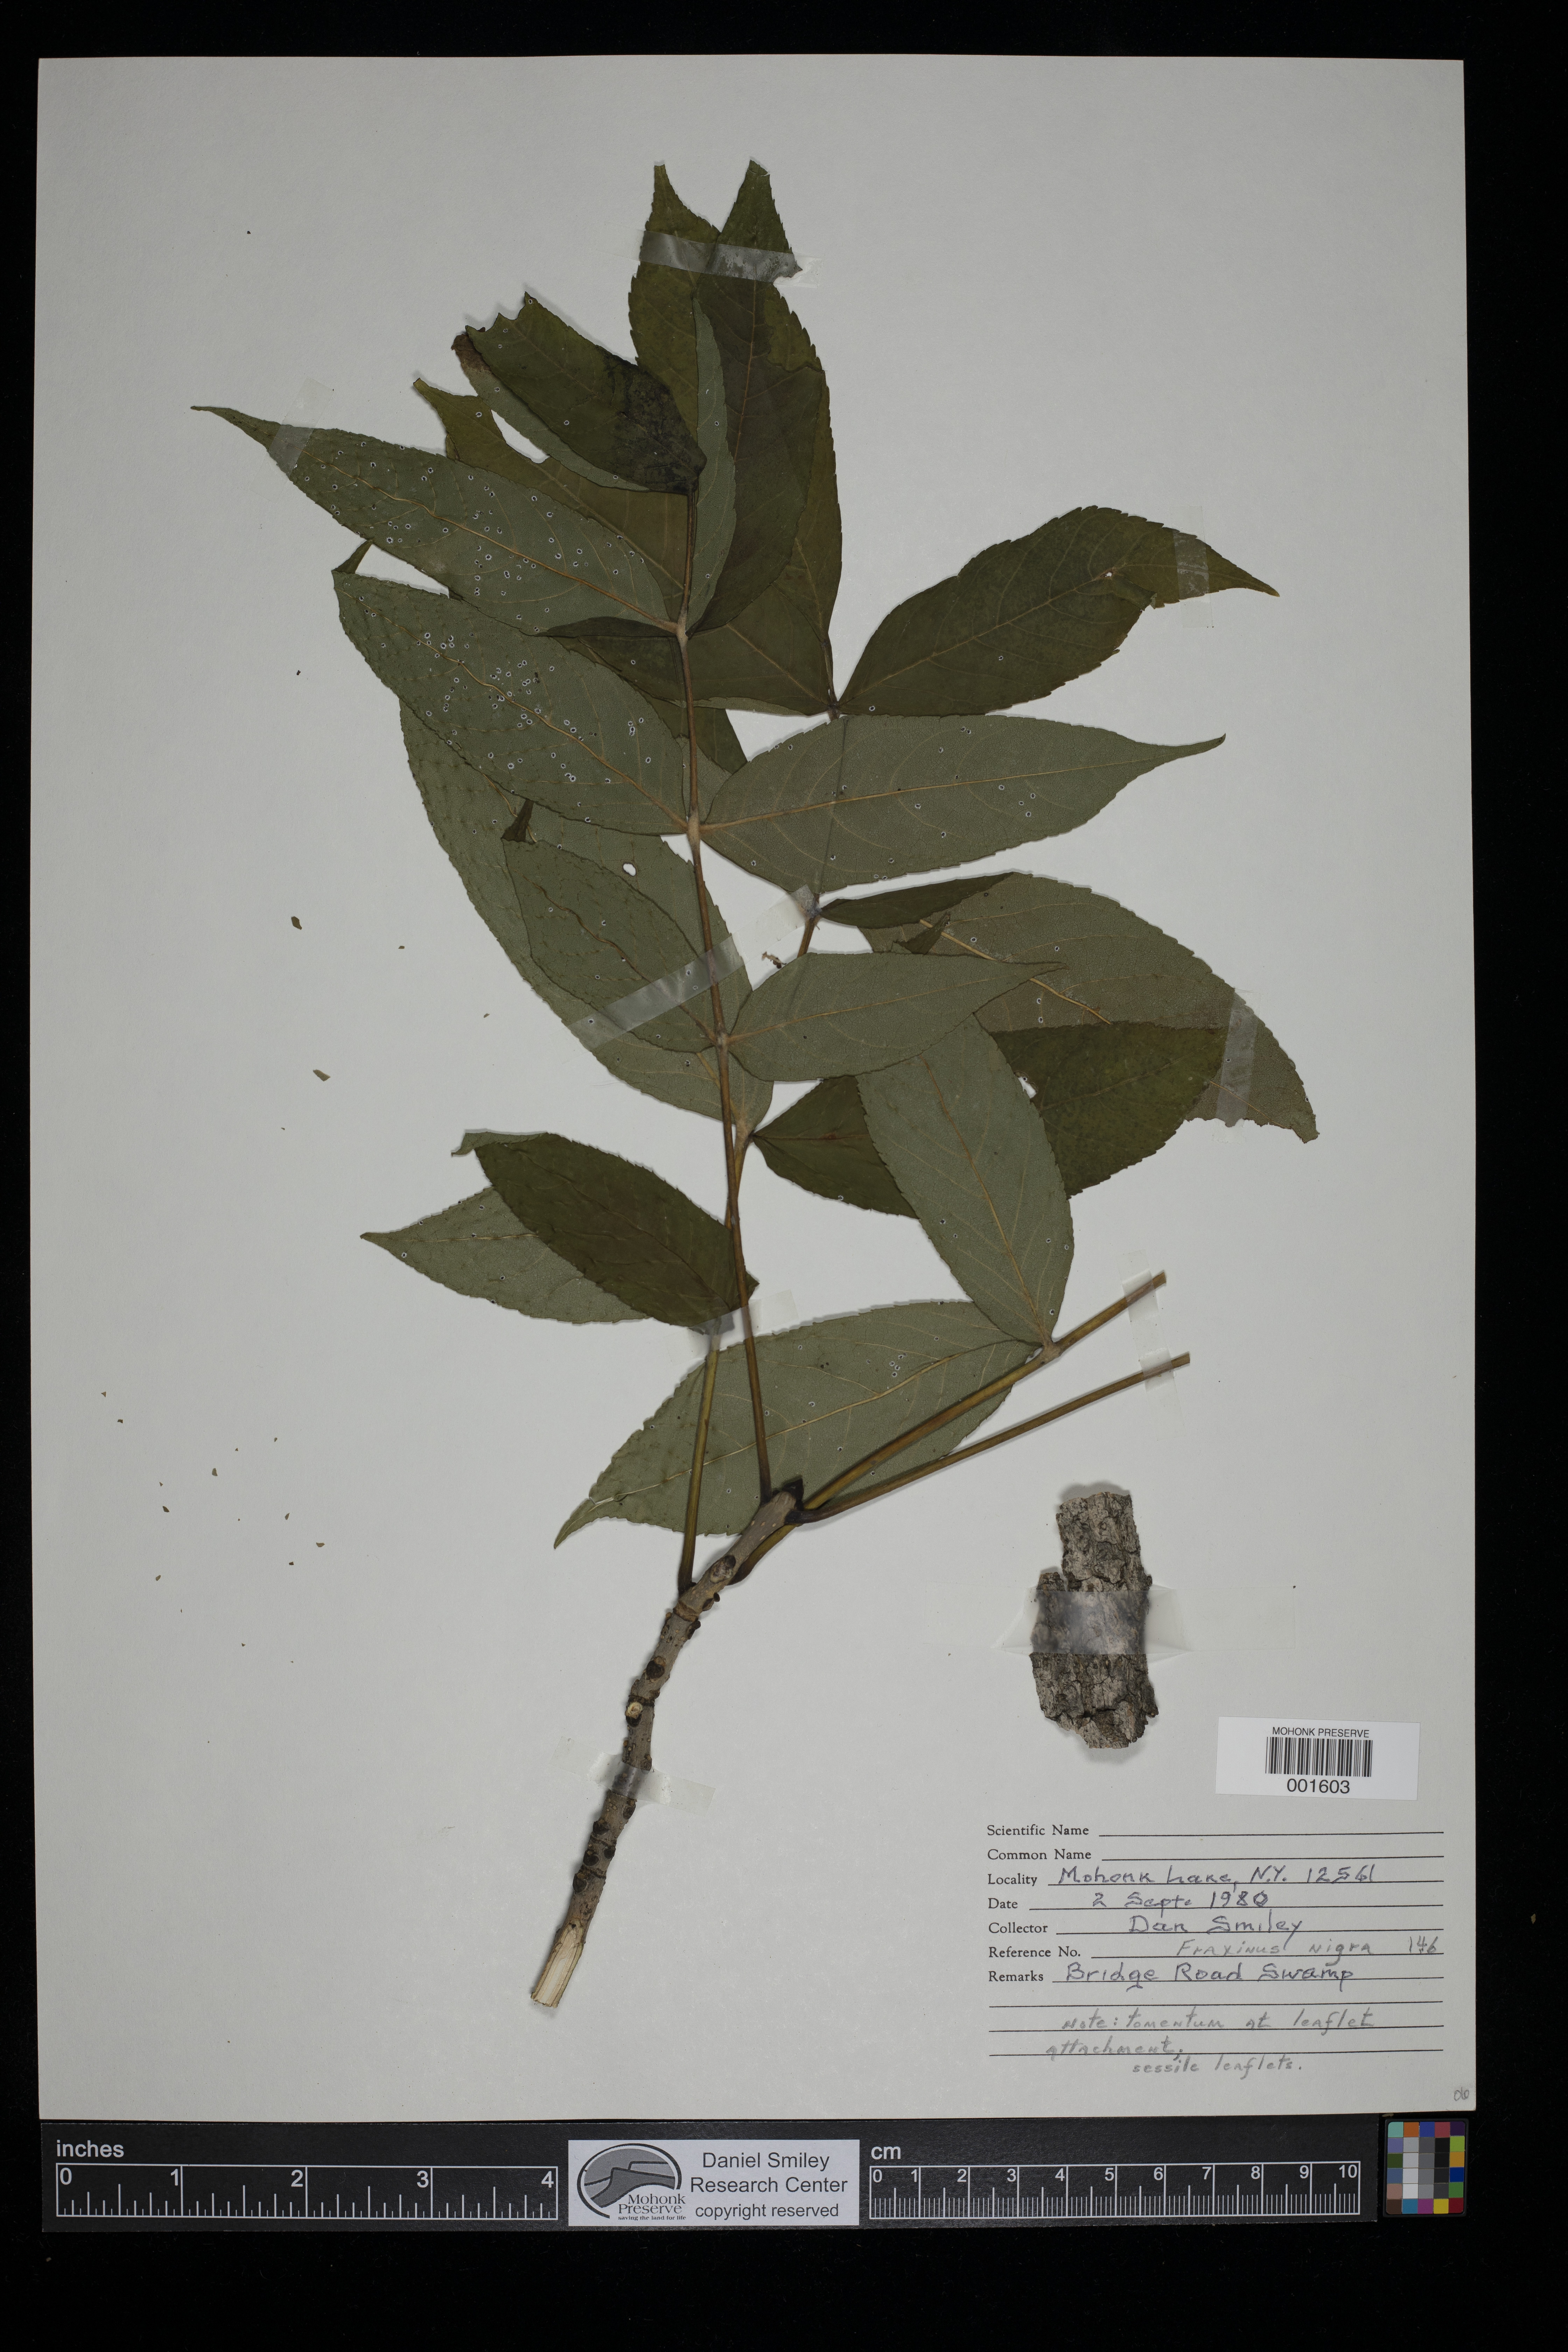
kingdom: Plantae
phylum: Tracheophyta
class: Magnoliopsida
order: Lamiales
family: Oleaceae
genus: Fraxinus
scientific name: Fraxinus nigra
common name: Black ash
